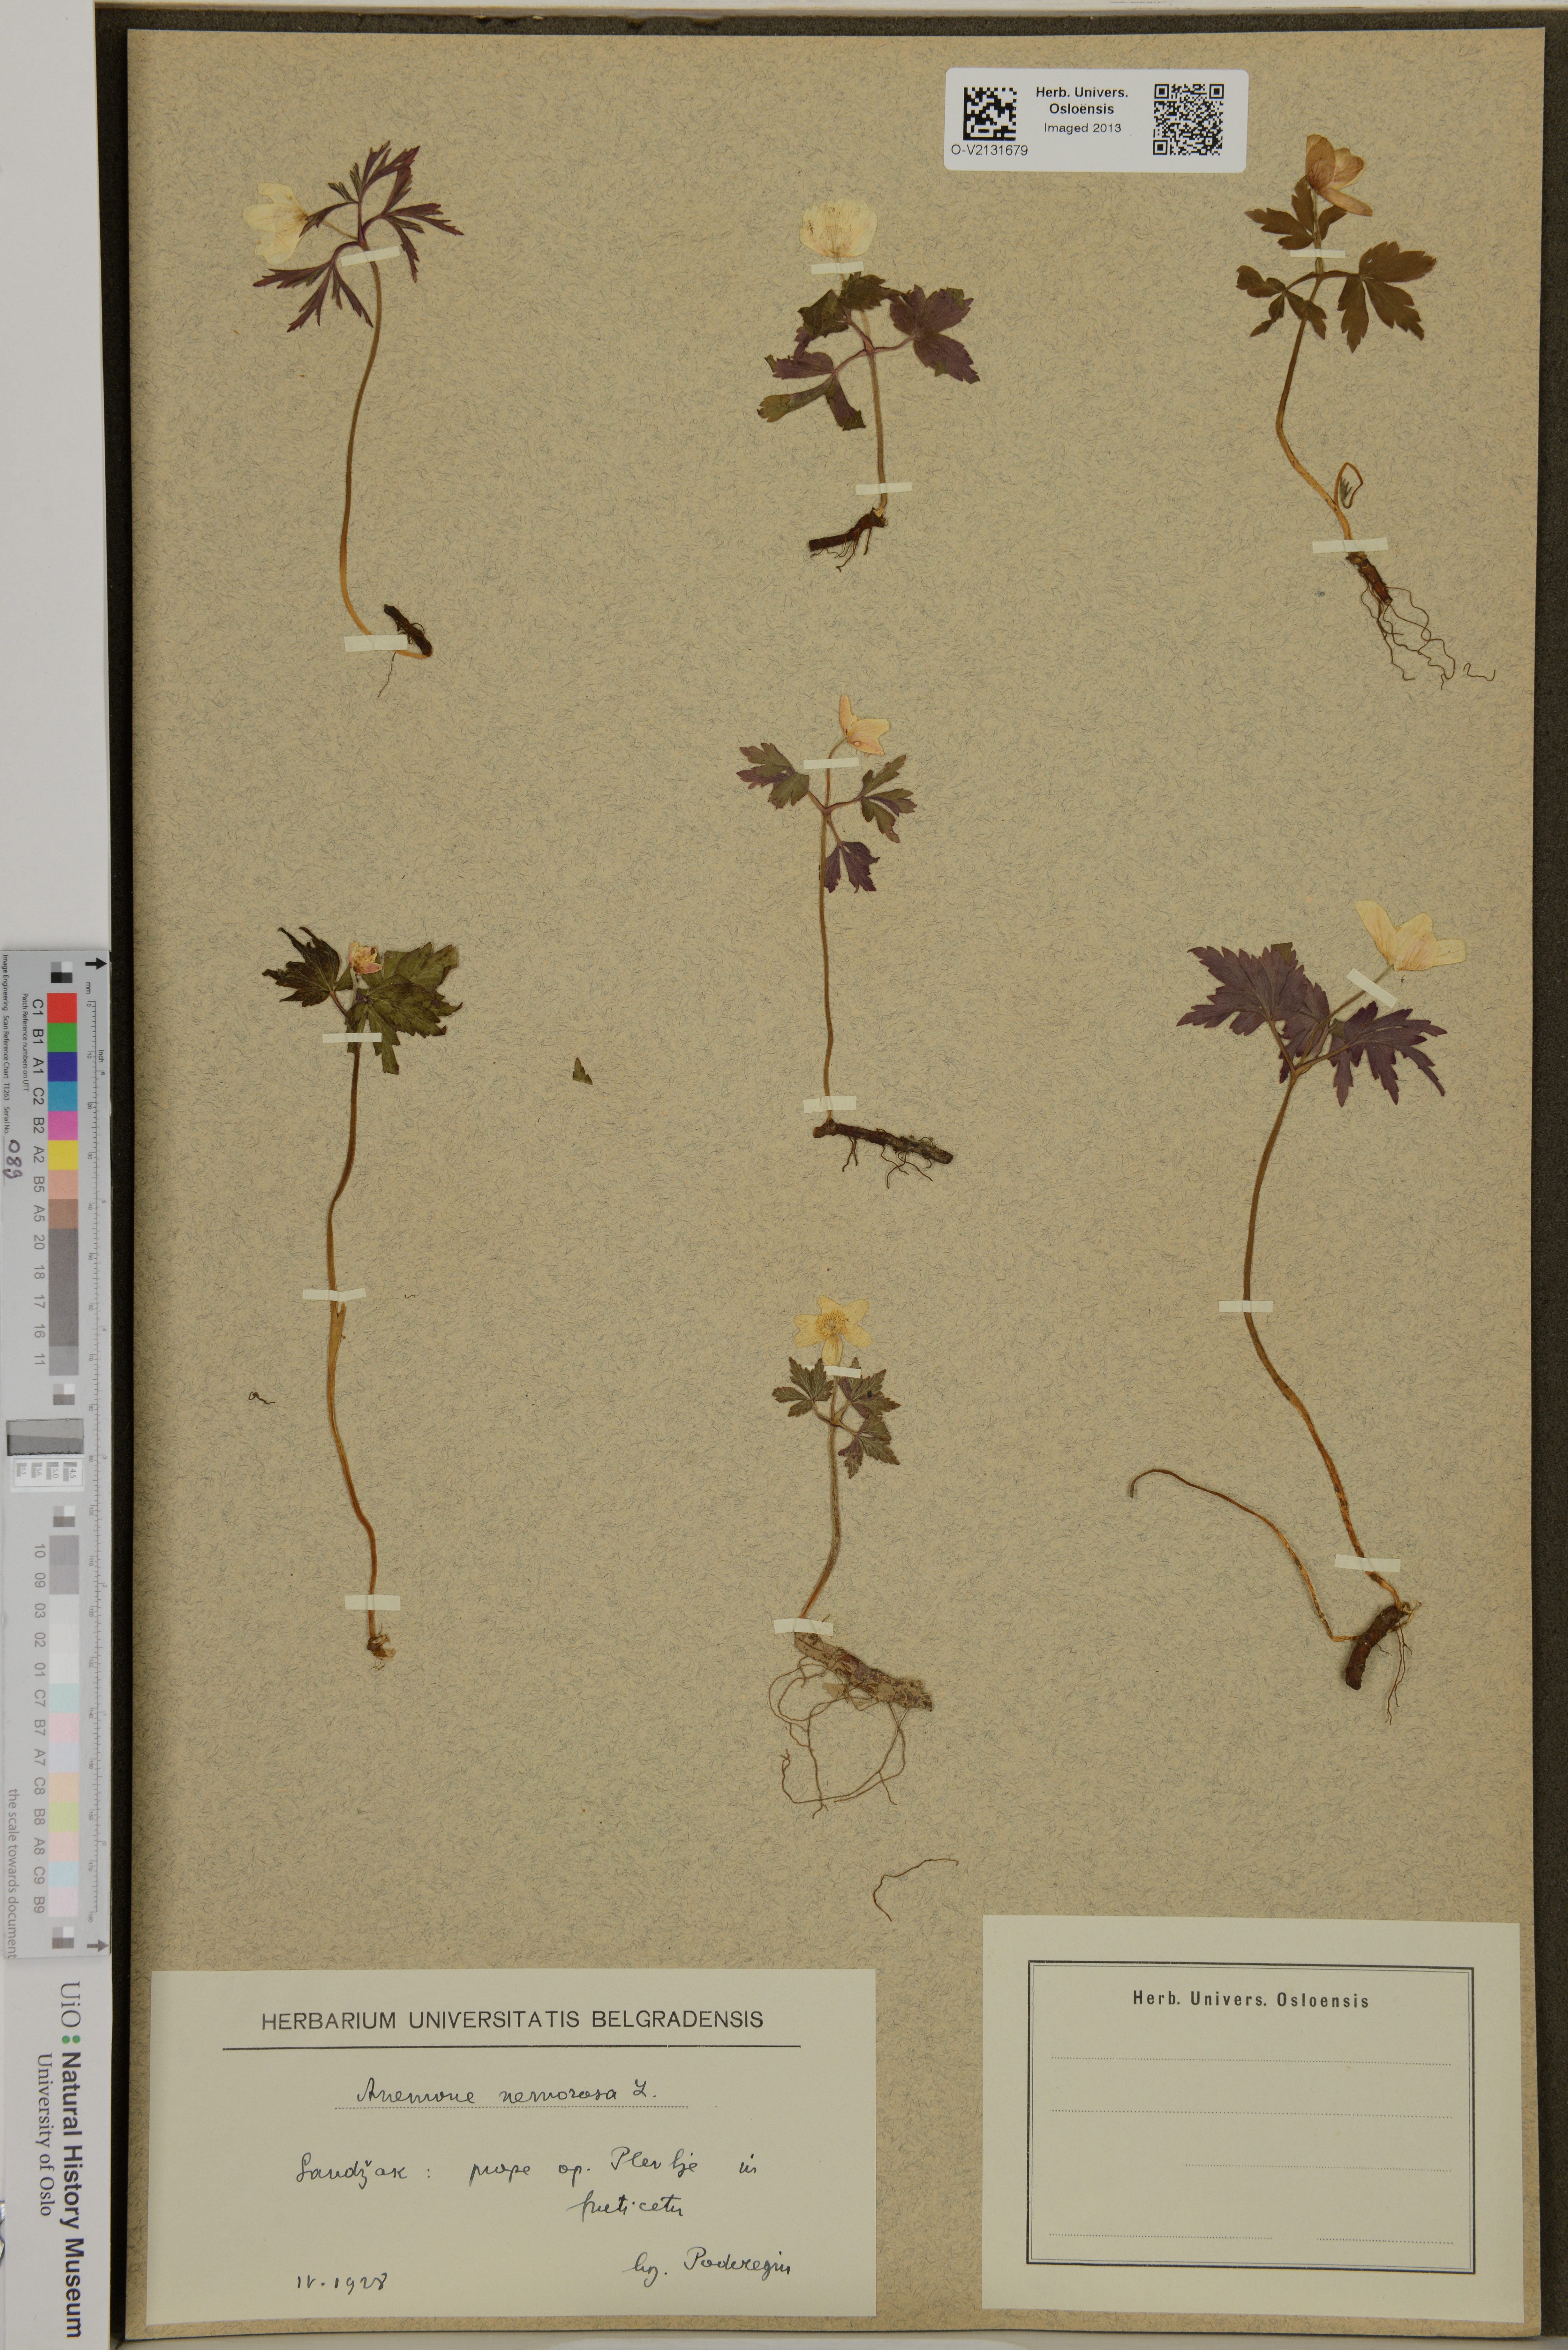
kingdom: Plantae
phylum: Tracheophyta
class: Magnoliopsida
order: Ranunculales
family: Ranunculaceae
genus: Anemone
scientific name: Anemone nemorosa
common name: Wood anemone
